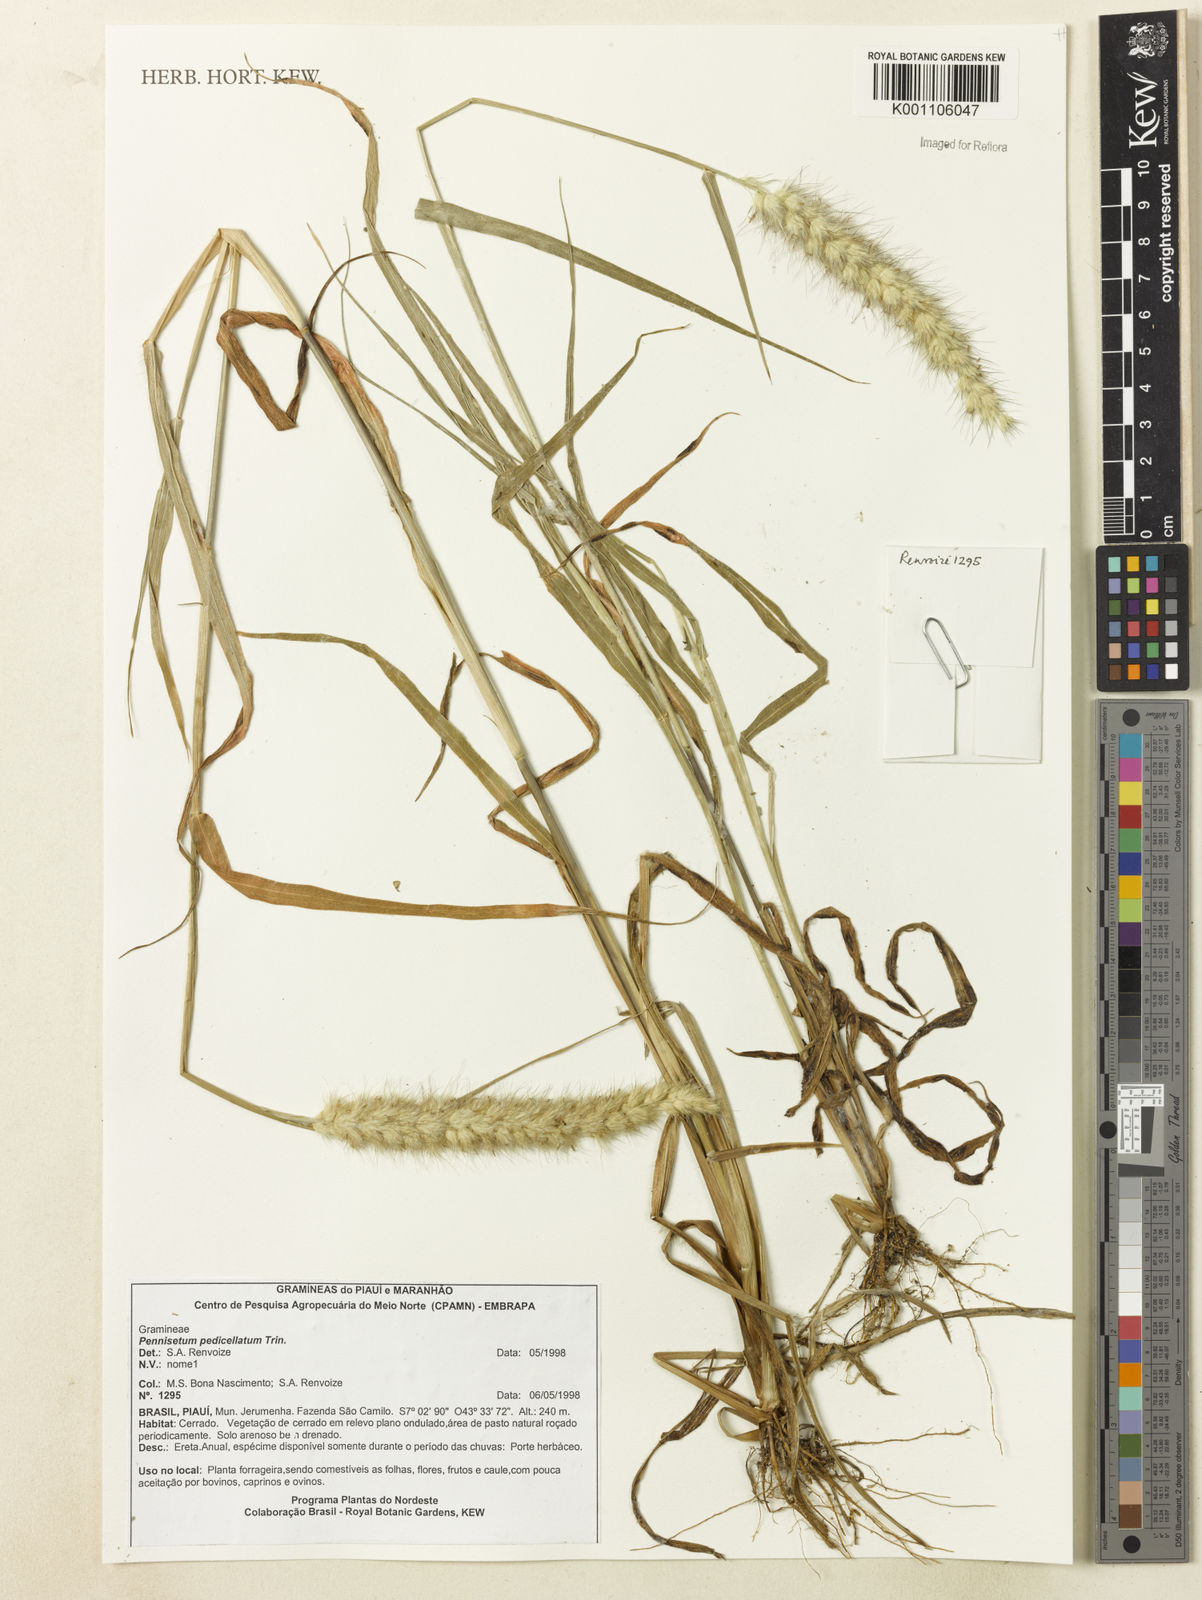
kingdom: Plantae
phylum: Tracheophyta
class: Liliopsida
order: Poales
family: Poaceae
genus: Cenchrus
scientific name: Cenchrus pedicellatus
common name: Hairy fountain grass
